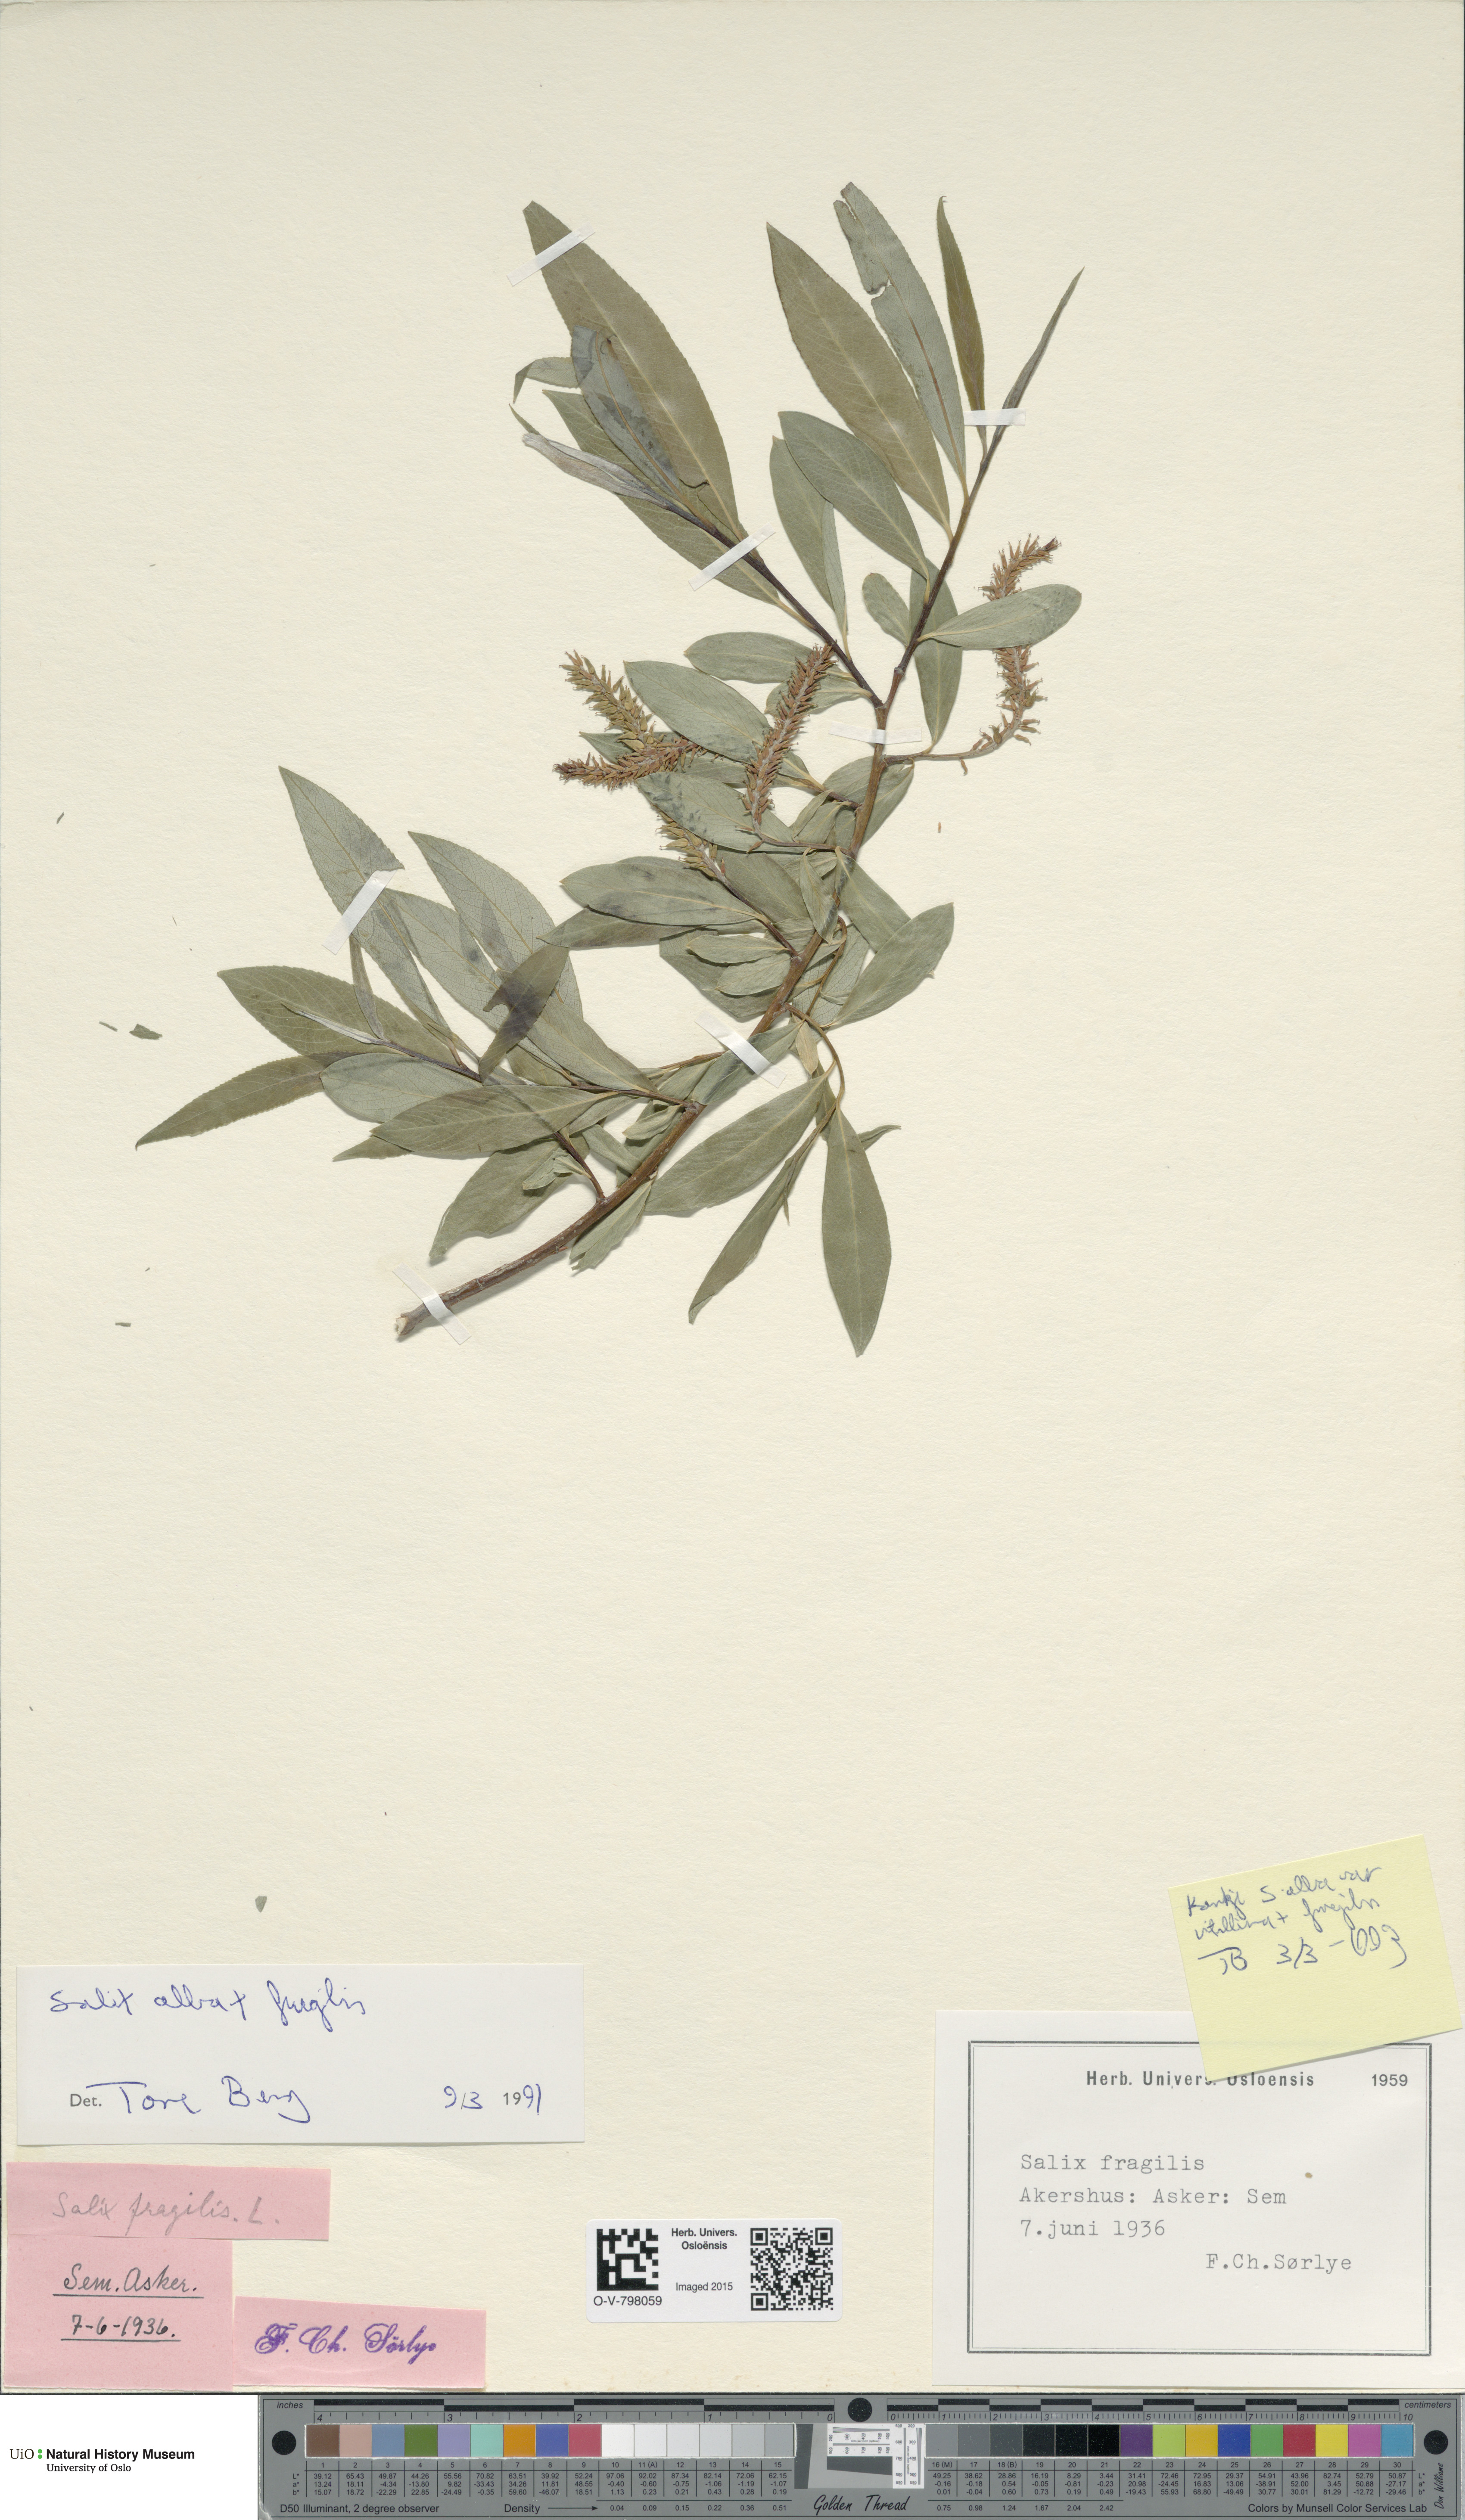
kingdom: Plantae
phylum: Tracheophyta
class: Magnoliopsida
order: Malpighiales
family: Salicaceae
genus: Salix
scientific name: Salix
